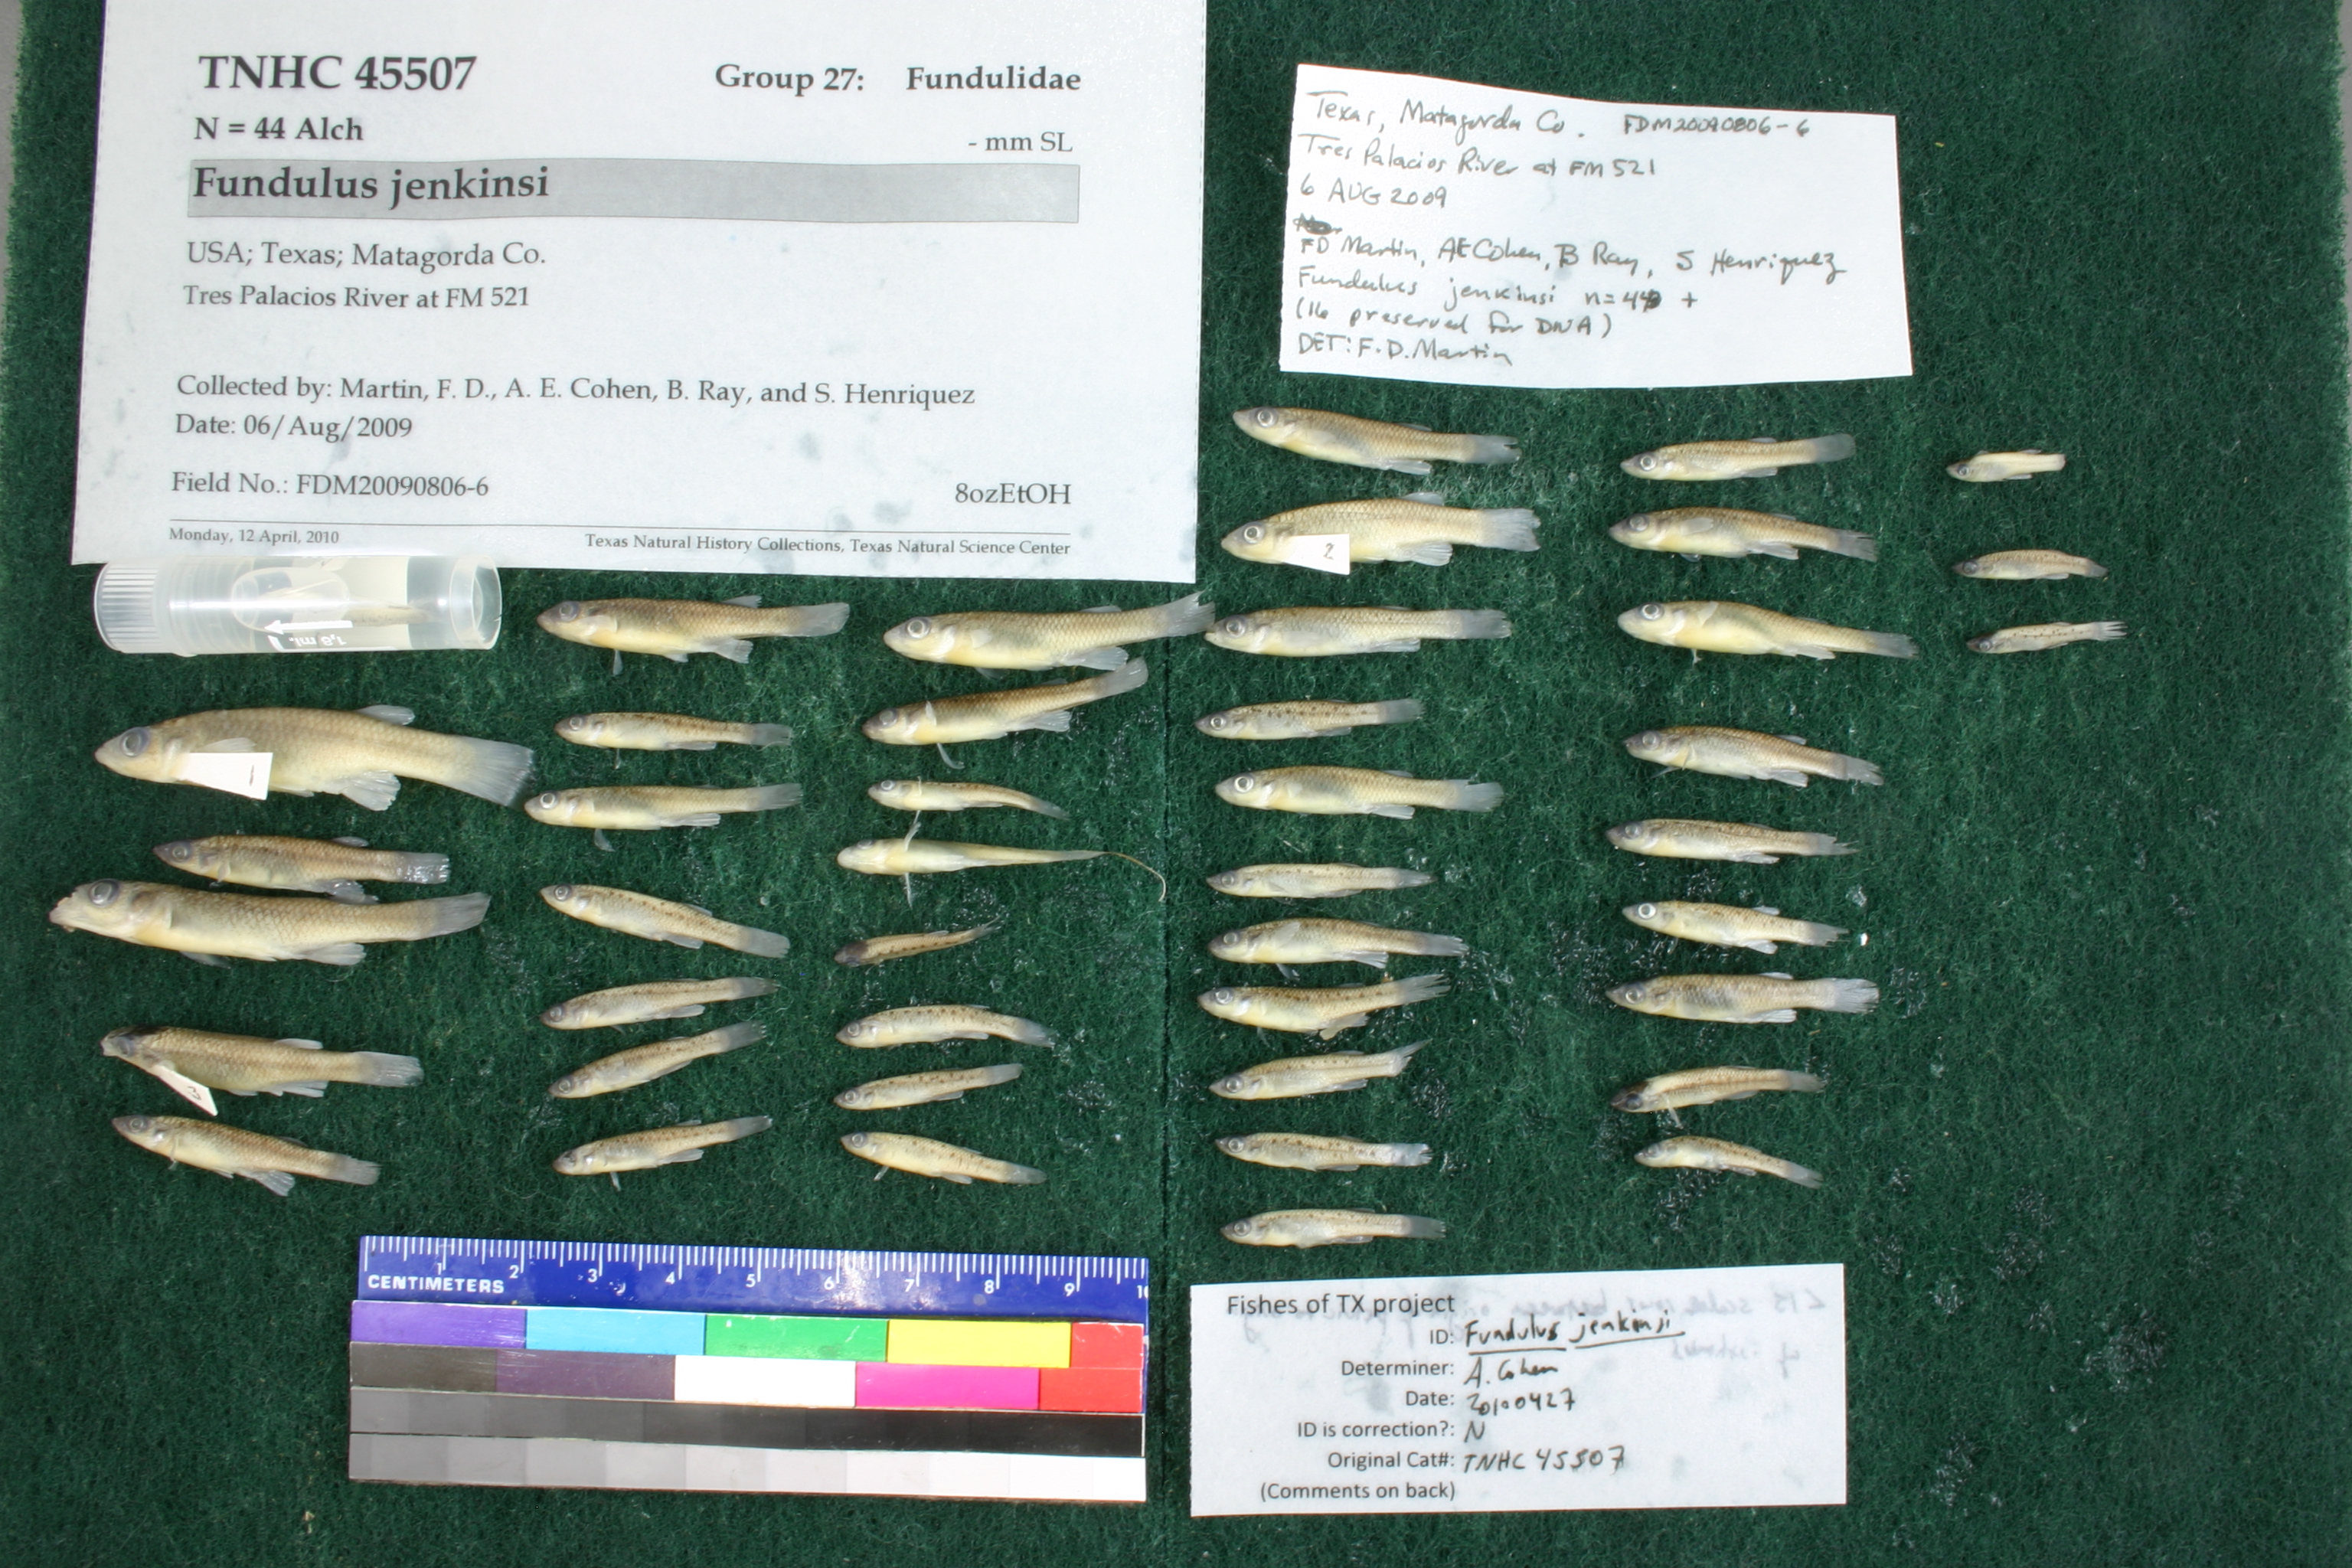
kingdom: Animalia
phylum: Chordata
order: Cyprinodontiformes
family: Fundulidae
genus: Fundulus
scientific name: Fundulus jenkinsi
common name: Saltmarsh topminnow
